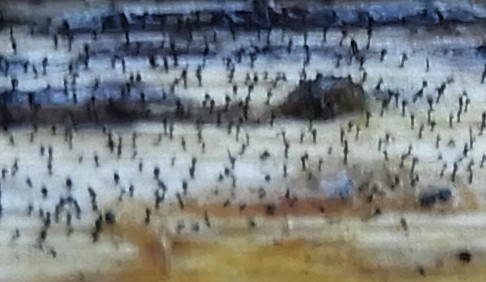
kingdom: Fungi
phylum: Ascomycota
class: Dothideomycetes
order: Pleosporales
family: Melanommataceae
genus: Phragmocephala
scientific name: Phragmocephala atra
